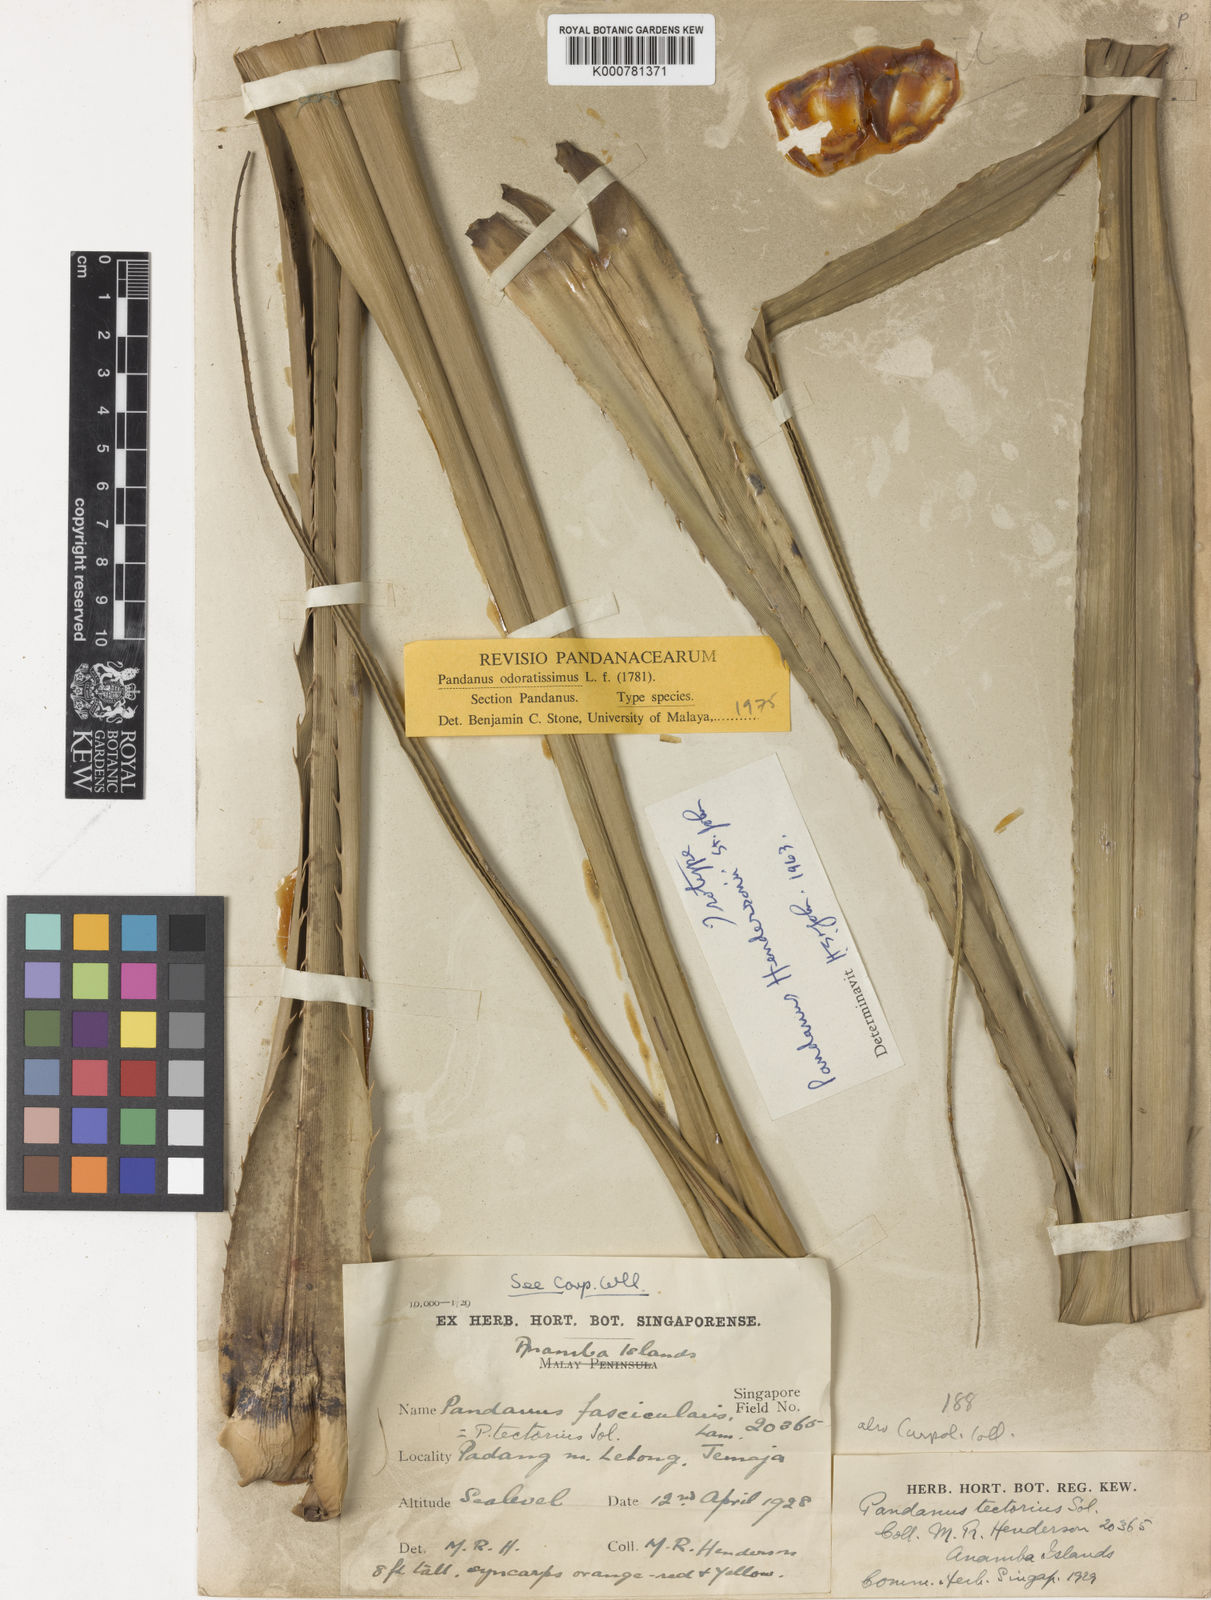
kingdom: Plantae
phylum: Tracheophyta
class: Liliopsida
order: Pandanales
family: Pandanaceae
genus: Pandanus
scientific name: Pandanus odorifer
